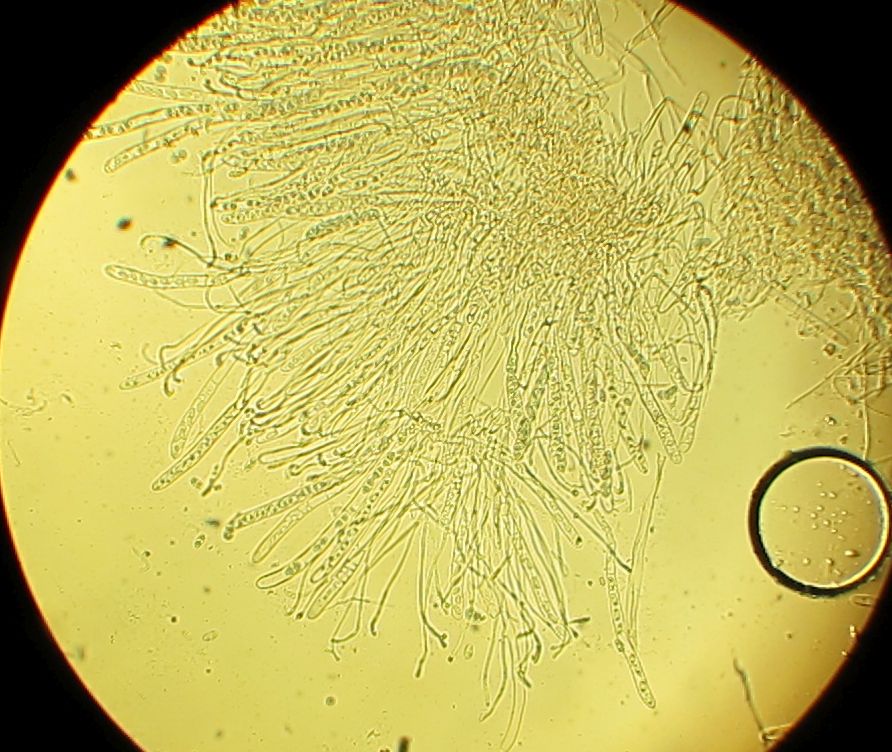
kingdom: Fungi
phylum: Ascomycota
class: Pezizomycetes
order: Pezizales
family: Otideaceae
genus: Otidea
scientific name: Otidea alutacea
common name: læder-ørebæger
